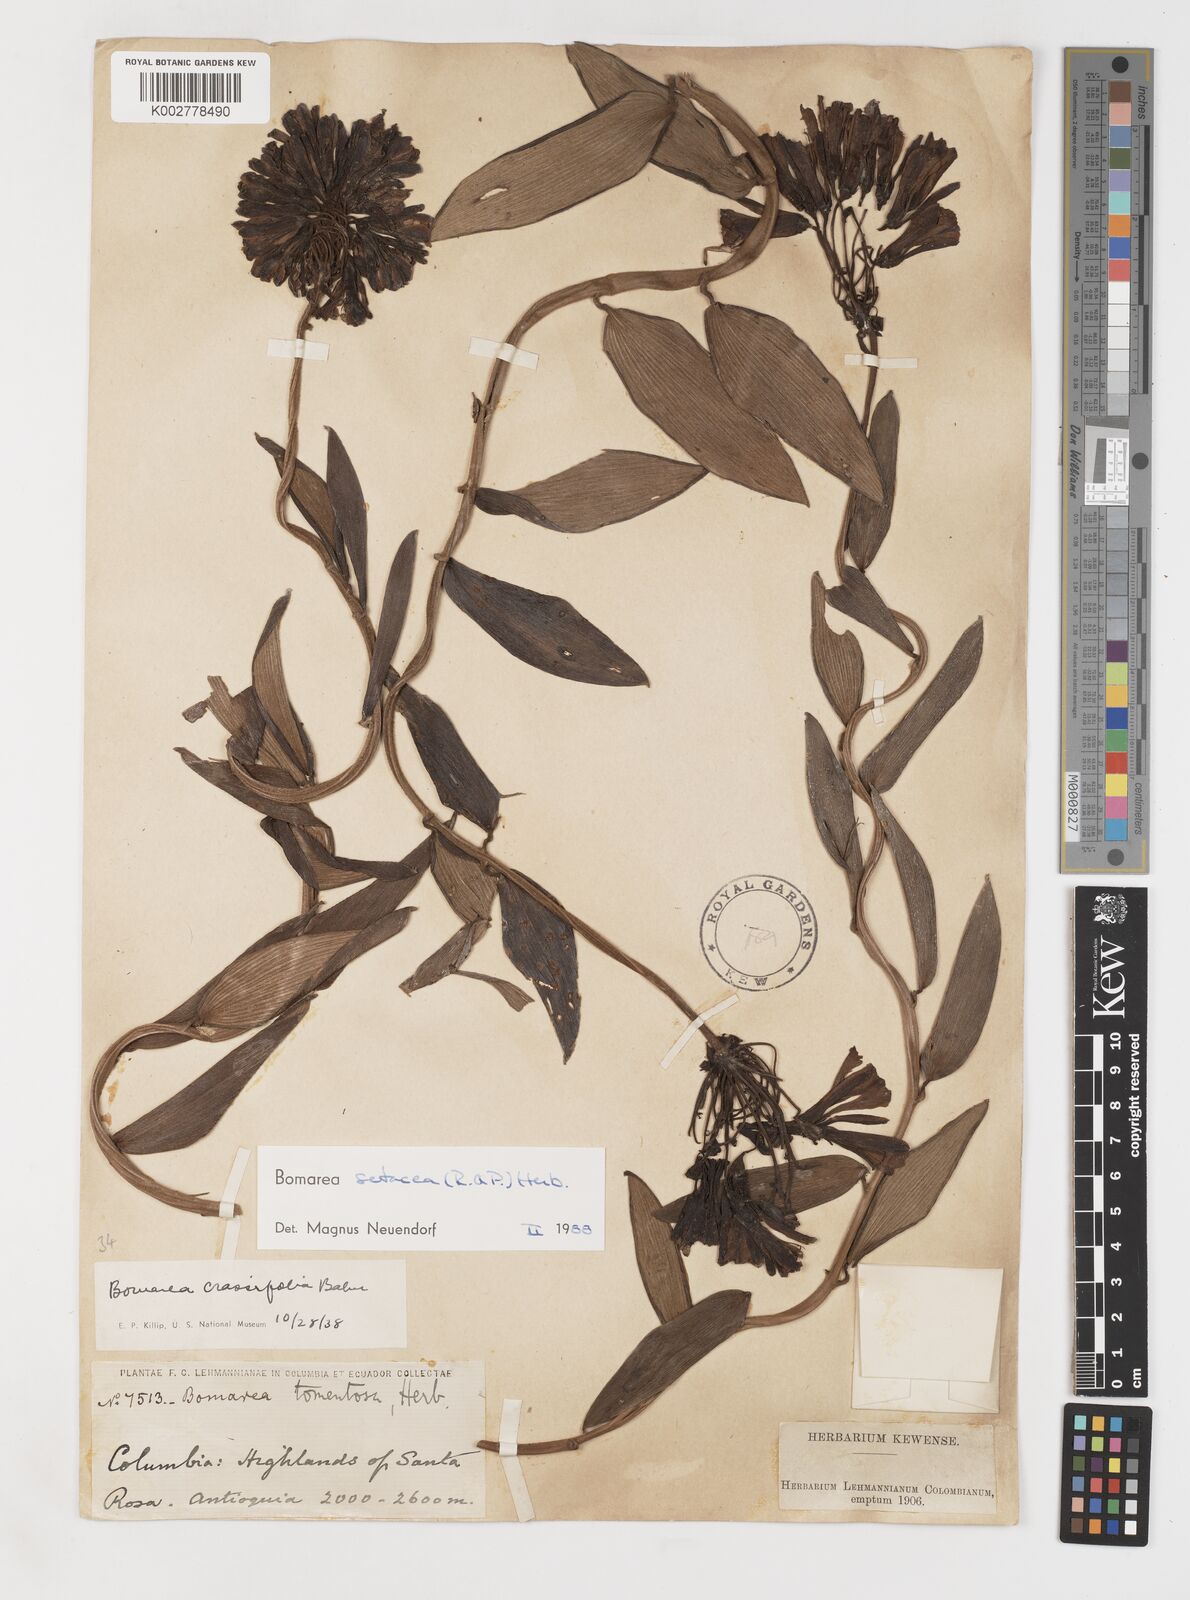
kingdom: Plantae
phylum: Tracheophyta
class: Liliopsida
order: Liliales
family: Alstroemeriaceae
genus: Bomarea
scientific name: Bomarea setacea
